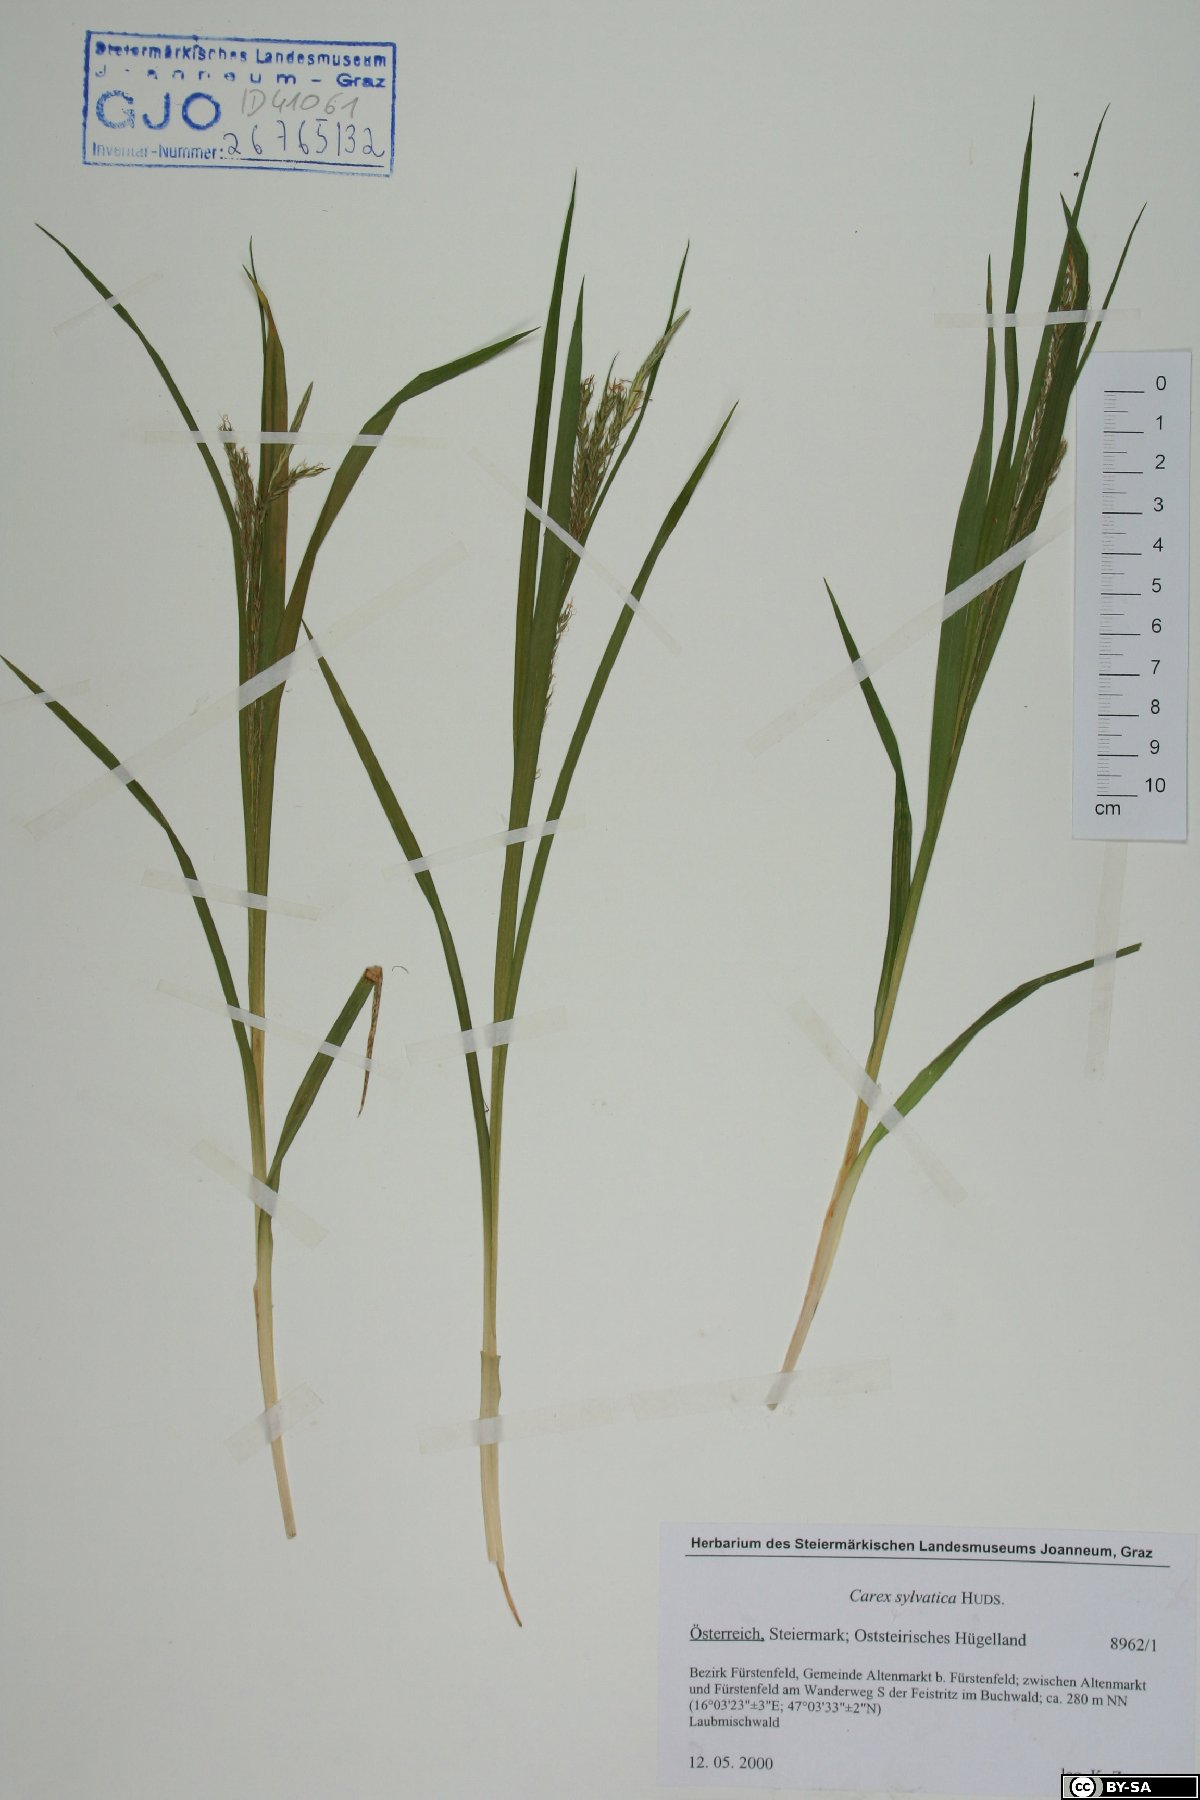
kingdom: Plantae
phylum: Tracheophyta
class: Liliopsida
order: Poales
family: Cyperaceae
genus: Carex
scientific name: Carex sylvatica
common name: Wood-sedge
